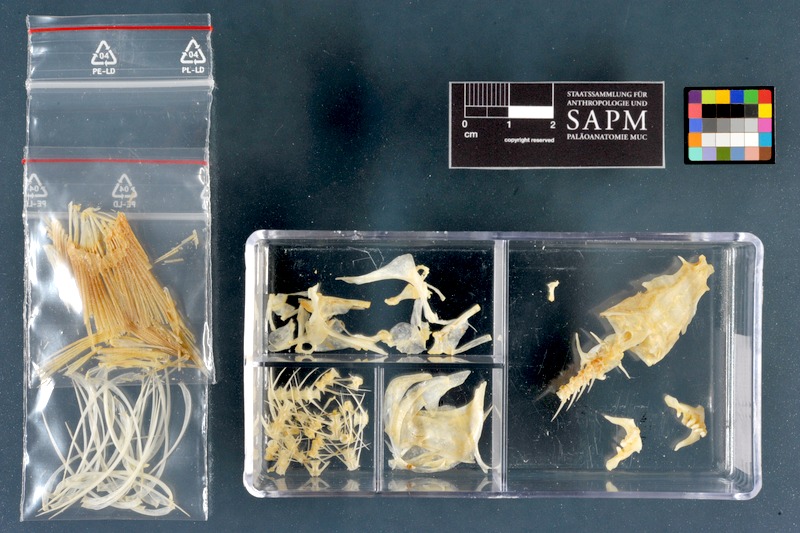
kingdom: Animalia
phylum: Chordata
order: Cypriniformes
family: Cyprinidae
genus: Rutilus
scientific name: Rutilus rutilus
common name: Roach
